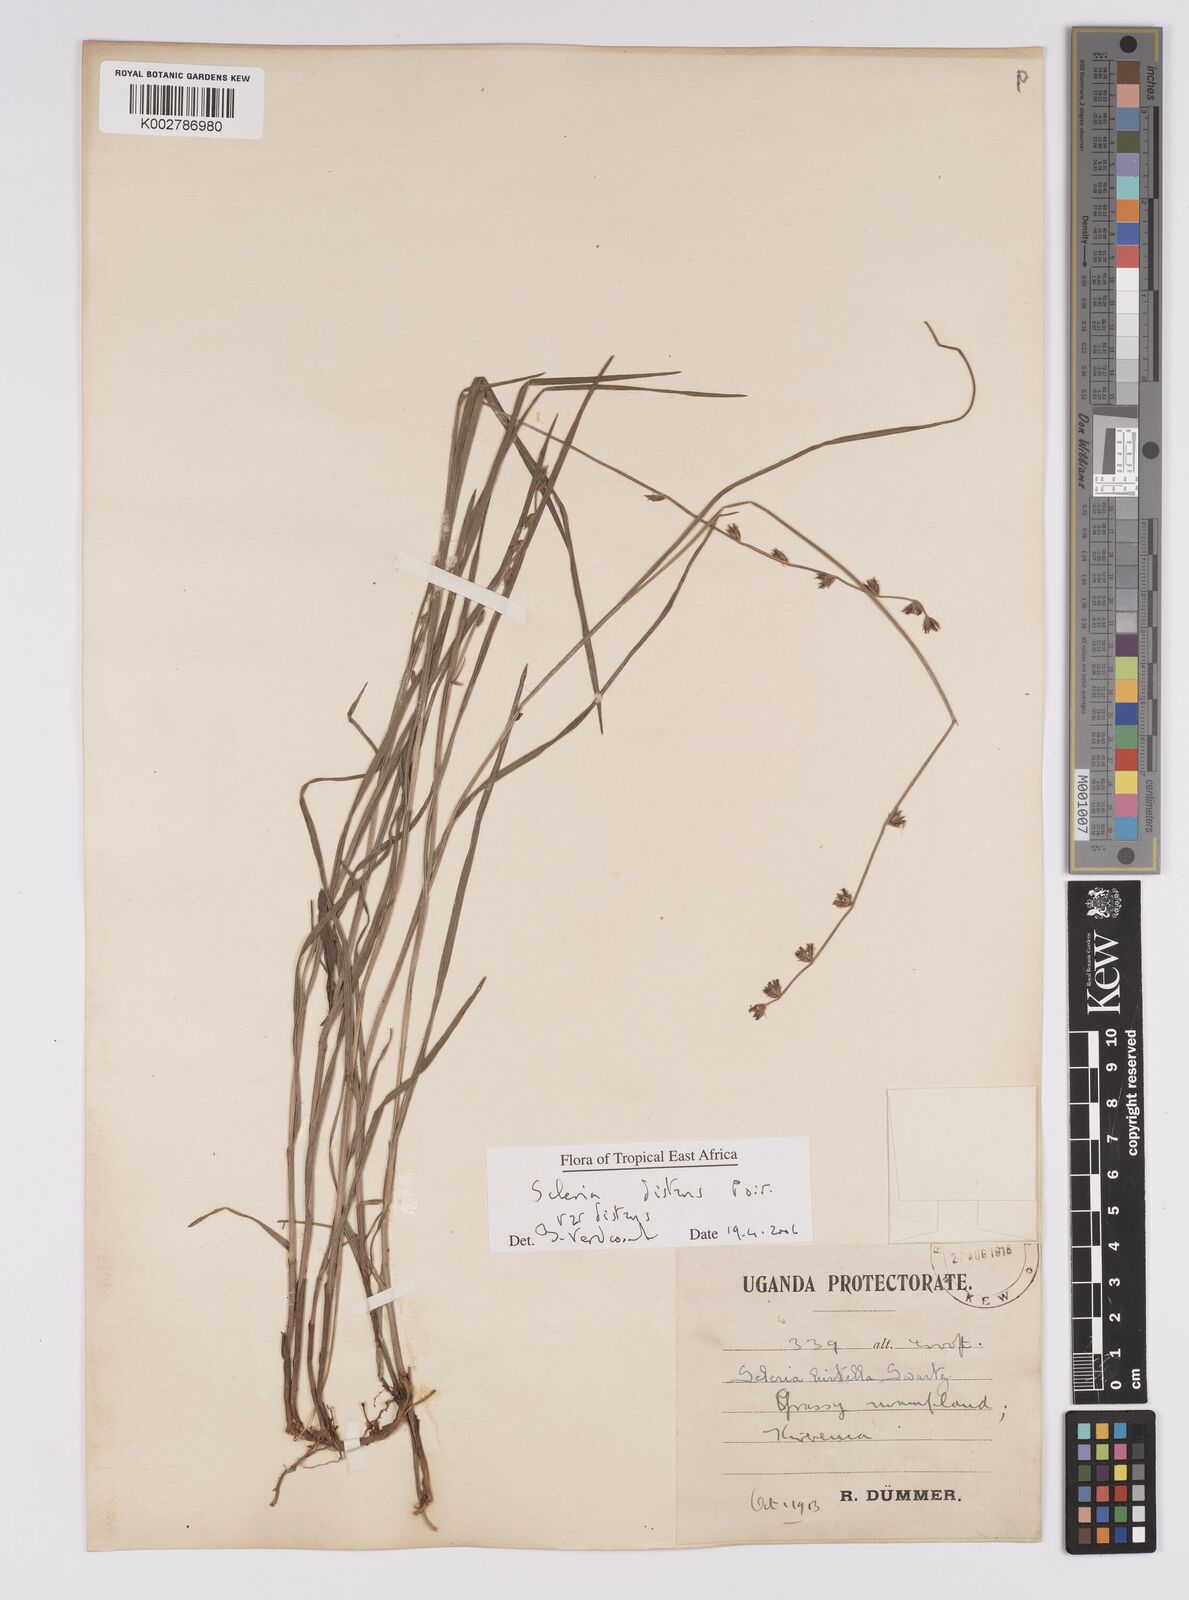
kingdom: Plantae
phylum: Tracheophyta
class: Liliopsida
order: Poales
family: Cyperaceae
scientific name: Cyperaceae
